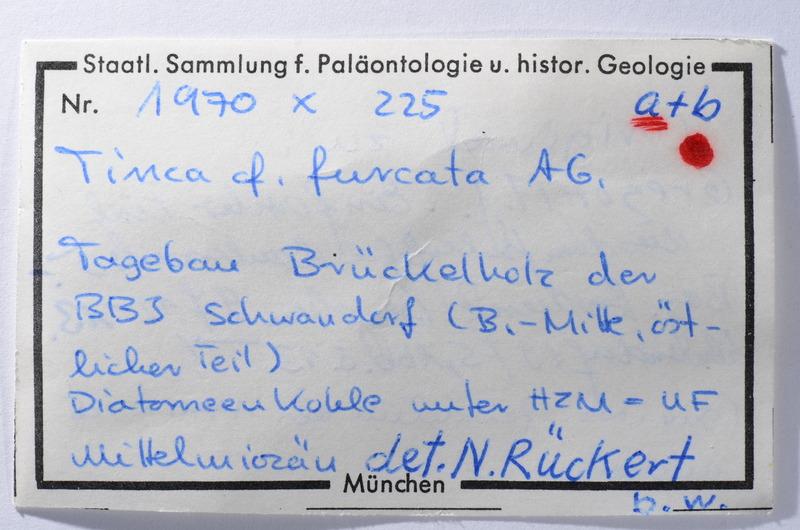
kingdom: Animalia
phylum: Chordata
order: Cypriniformes
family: Cyprinidae
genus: Tinca
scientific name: Tinca fuscata
